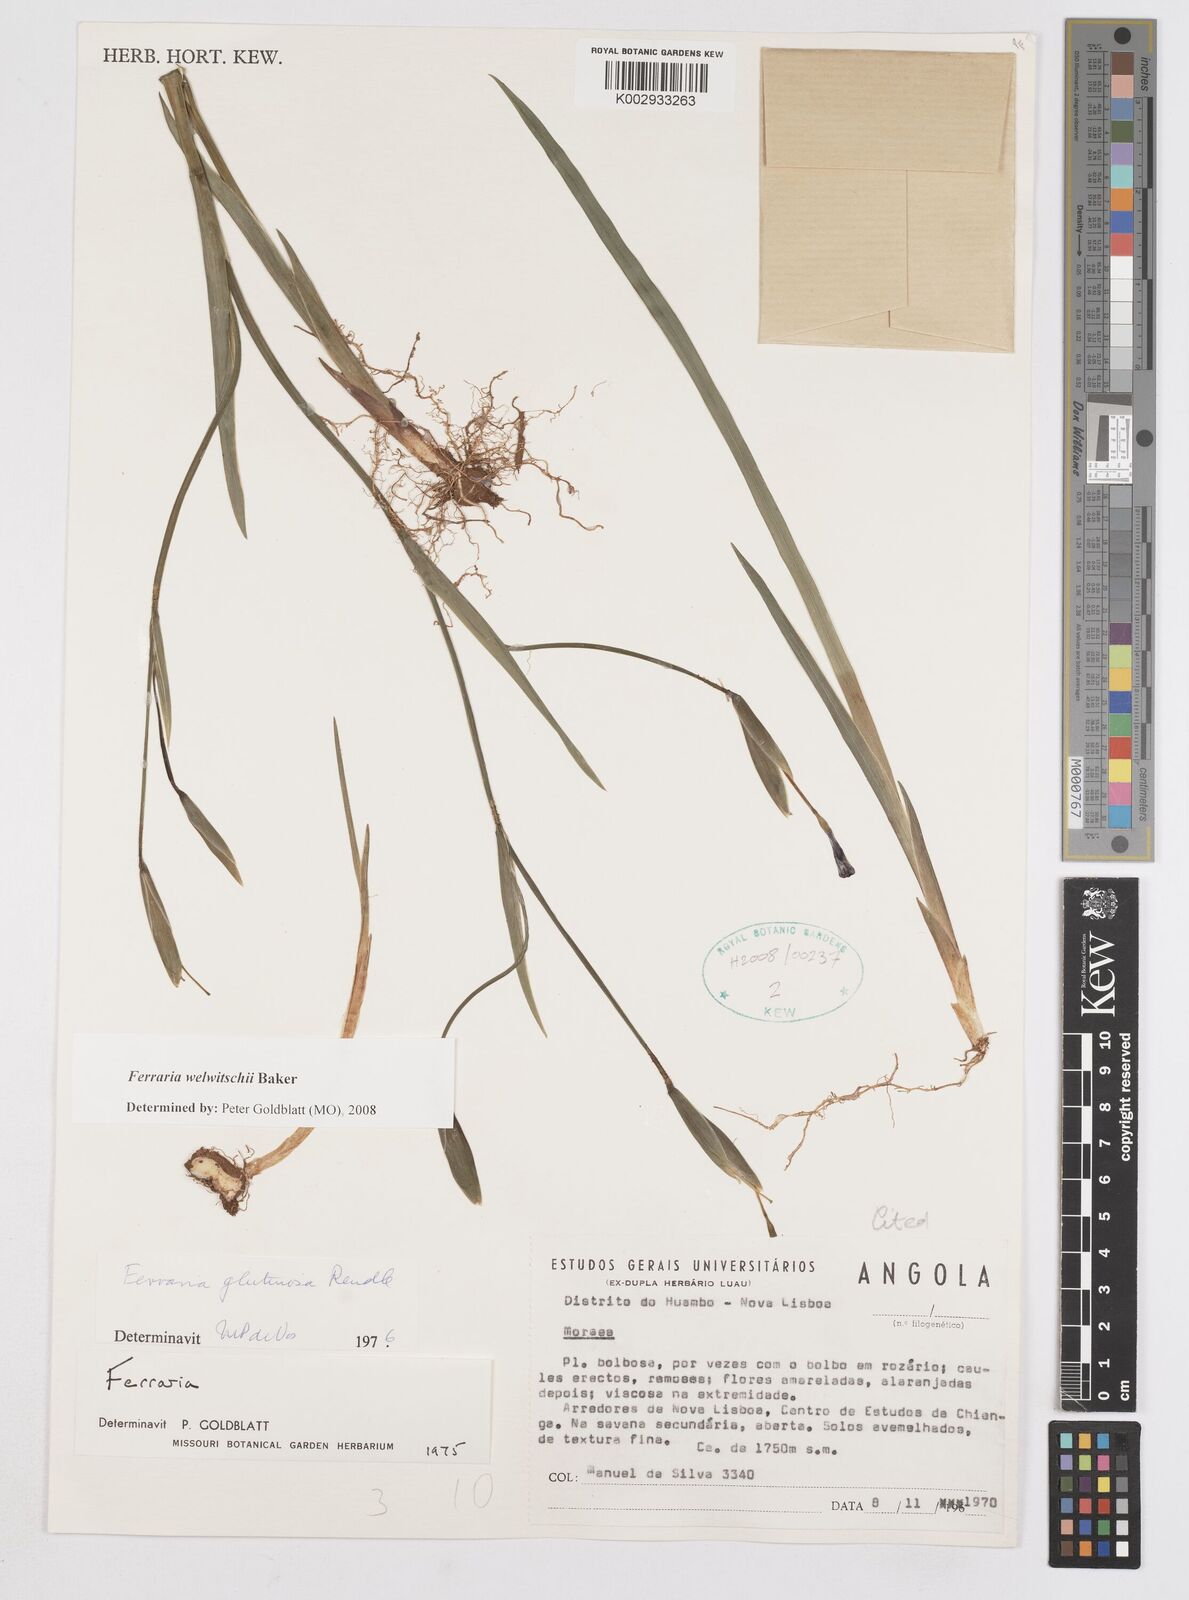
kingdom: Plantae
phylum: Tracheophyta
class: Liliopsida
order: Asparagales
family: Iridaceae
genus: Ferraria
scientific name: Ferraria welwitschii
